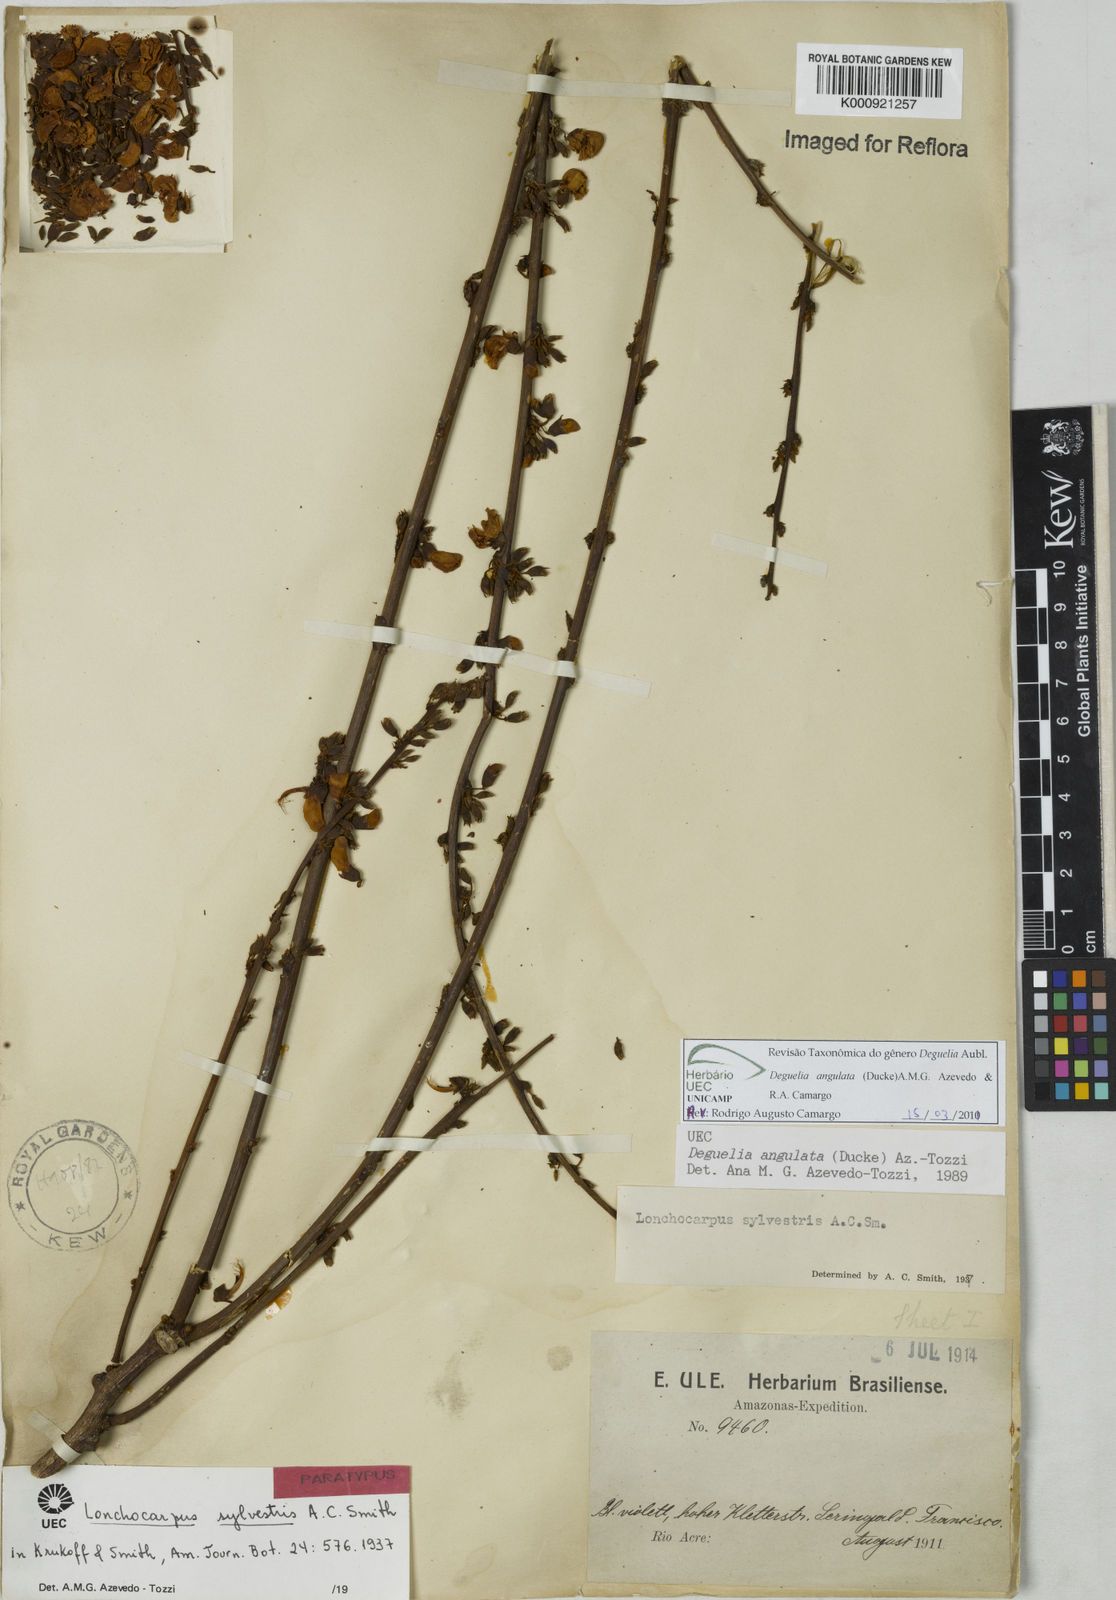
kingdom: Plantae
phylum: Tracheophyta
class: Magnoliopsida
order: Fabales
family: Fabaceae
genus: Deguelia
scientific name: Deguelia angulata
